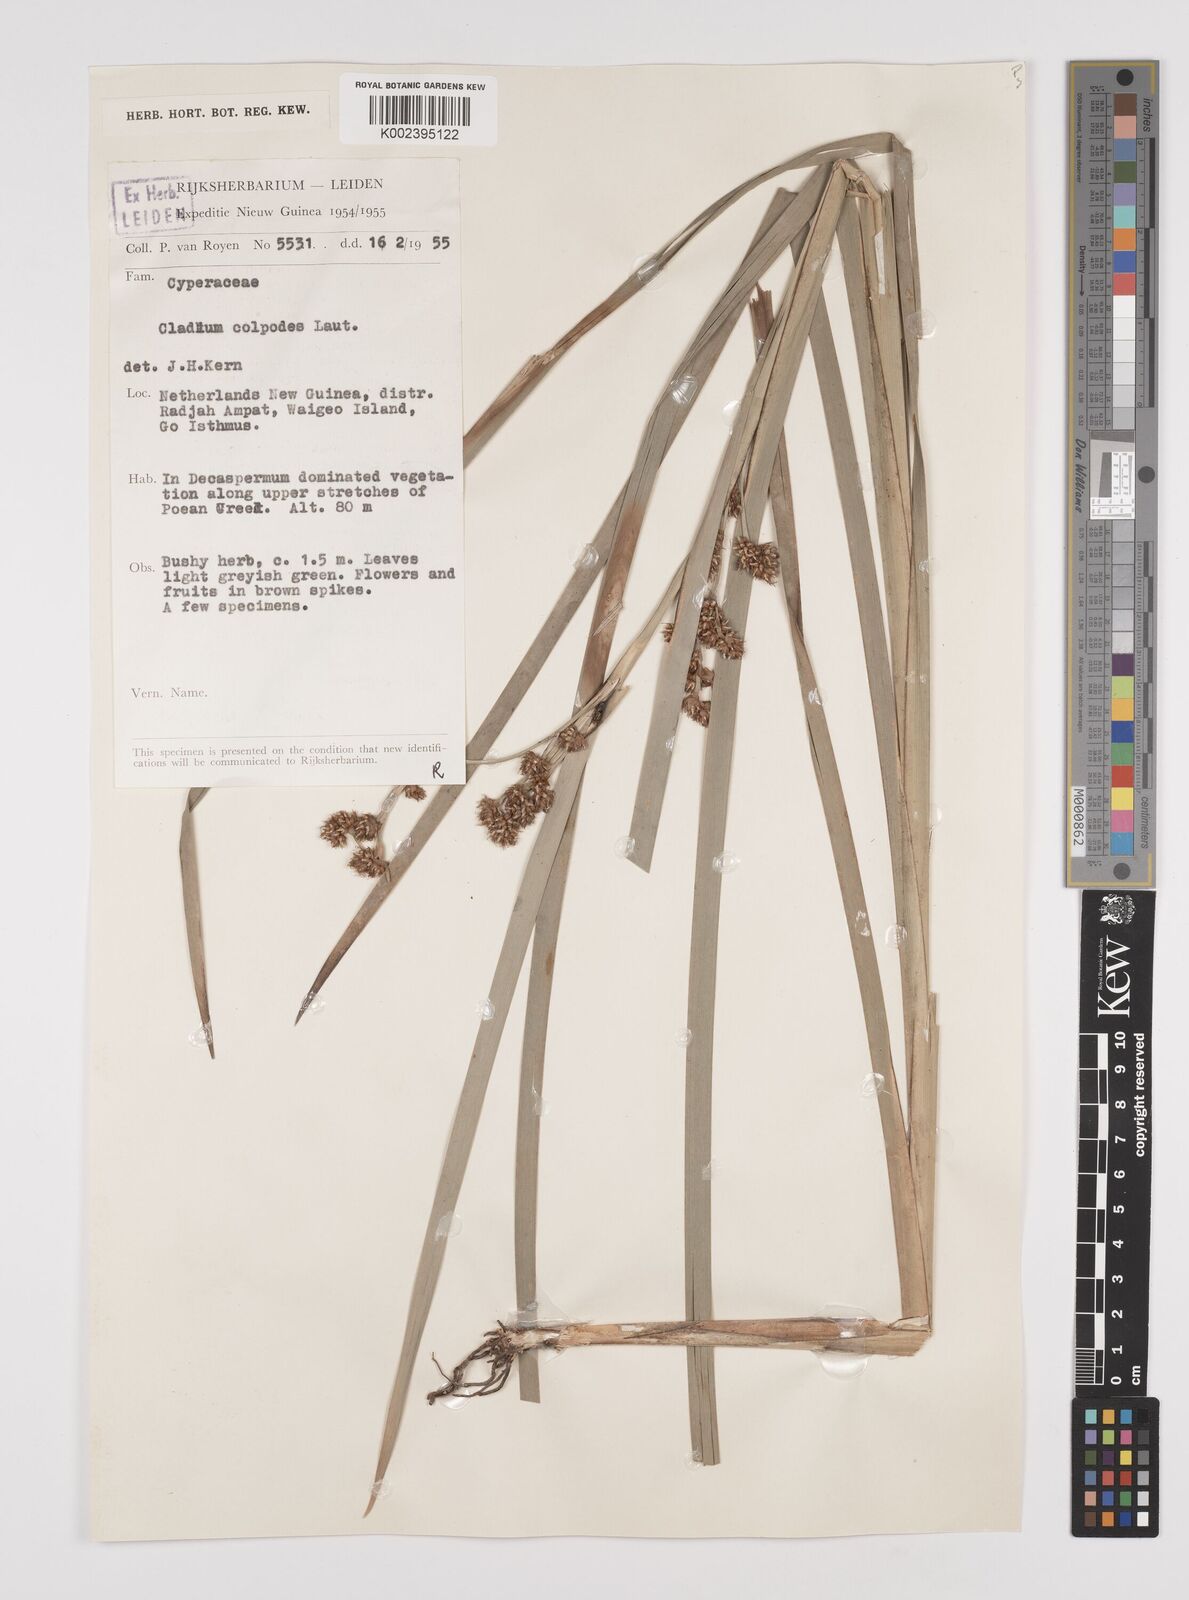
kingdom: Plantae
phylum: Tracheophyta
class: Liliopsida
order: Poales
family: Cyperaceae
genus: Machaerina
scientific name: Machaerina glomerata
